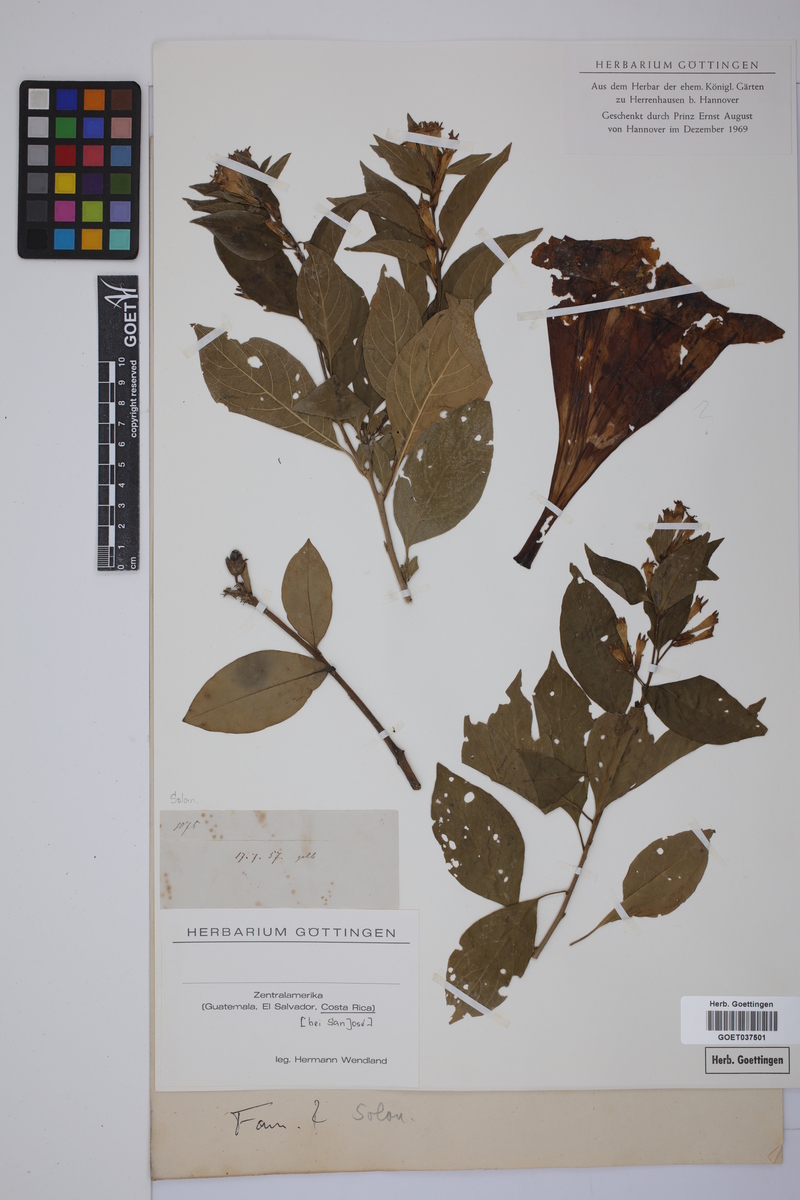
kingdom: Plantae
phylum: Tracheophyta
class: Magnoliopsida
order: Solanales
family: Solanaceae
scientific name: Solanaceae
